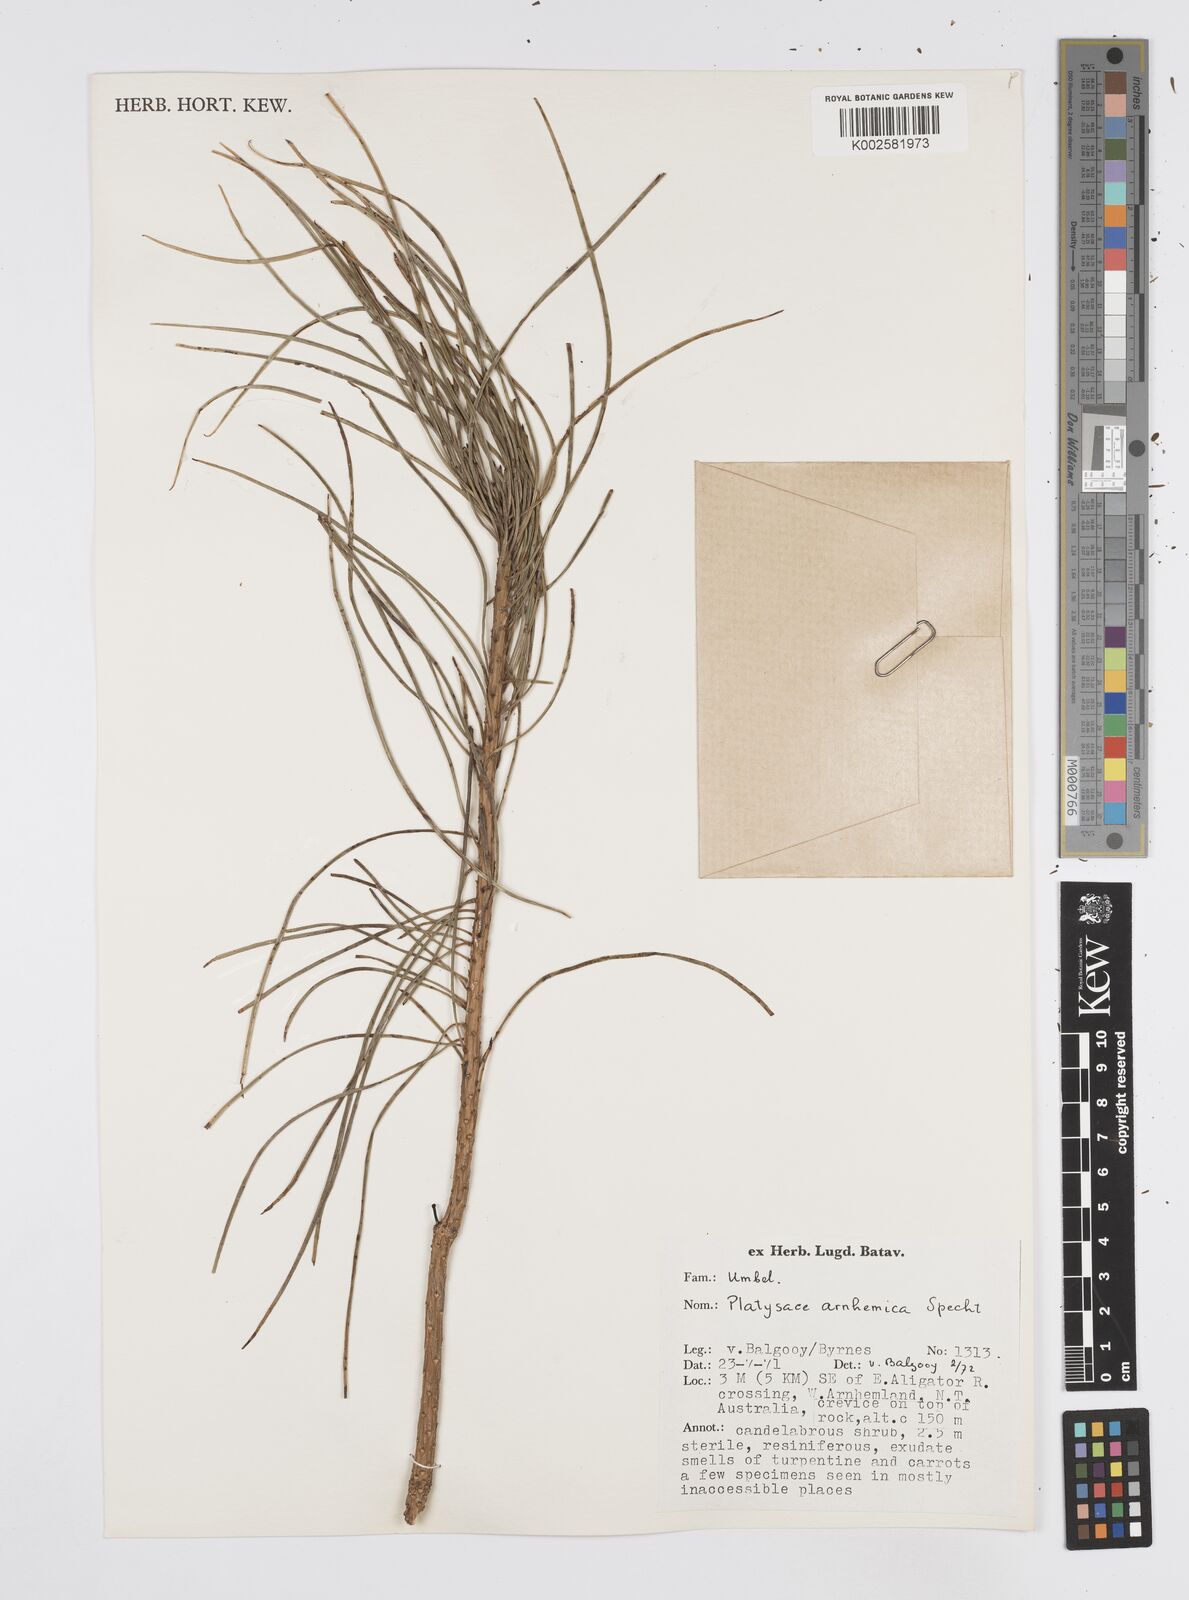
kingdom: Plantae
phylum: Tracheophyta
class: Magnoliopsida
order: Apiales
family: Apiaceae
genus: Platysace
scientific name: Platysace arnhemica
